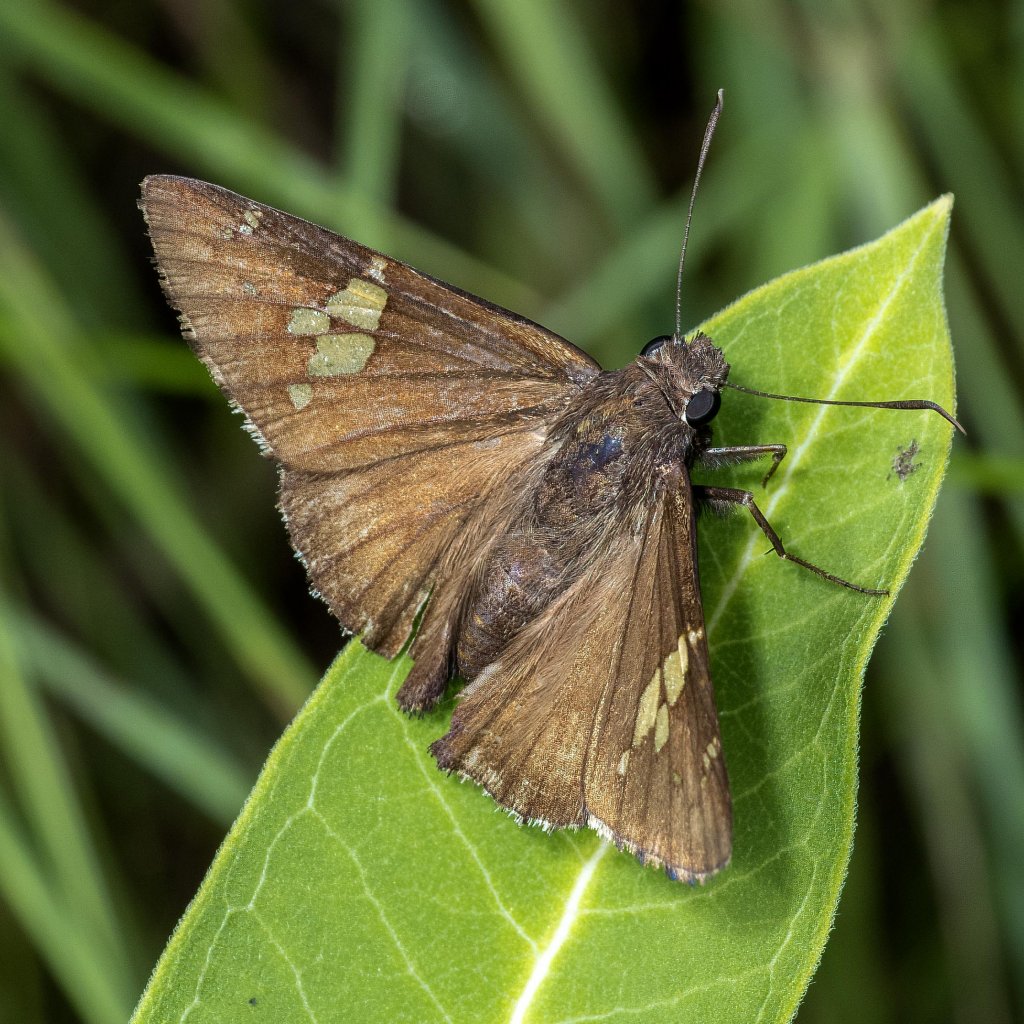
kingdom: Animalia
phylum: Arthropoda
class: Insecta
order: Lepidoptera
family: Hesperiidae
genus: Achalarus
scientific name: Achalarus lyciades
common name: Hoary Edge
